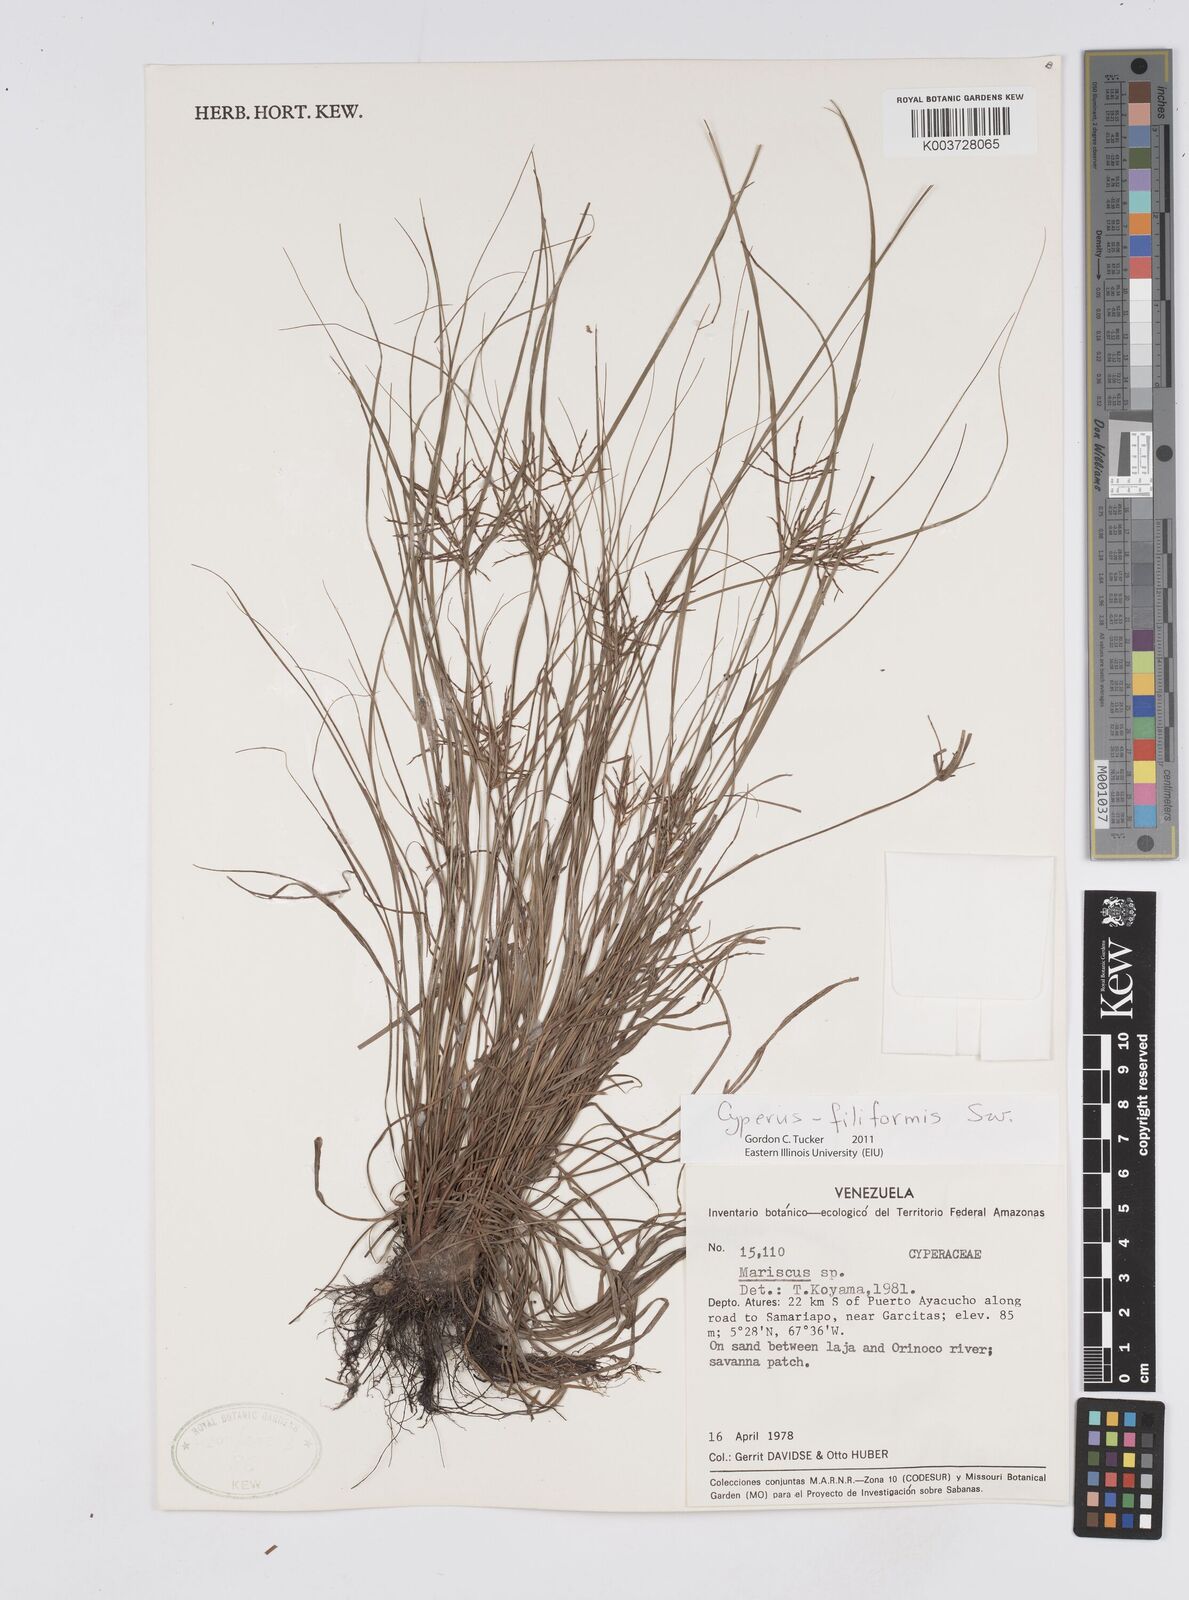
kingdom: Plantae
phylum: Tracheophyta
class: Liliopsida
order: Poales
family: Cyperaceae
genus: Cyperus
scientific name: Cyperus filiformis
